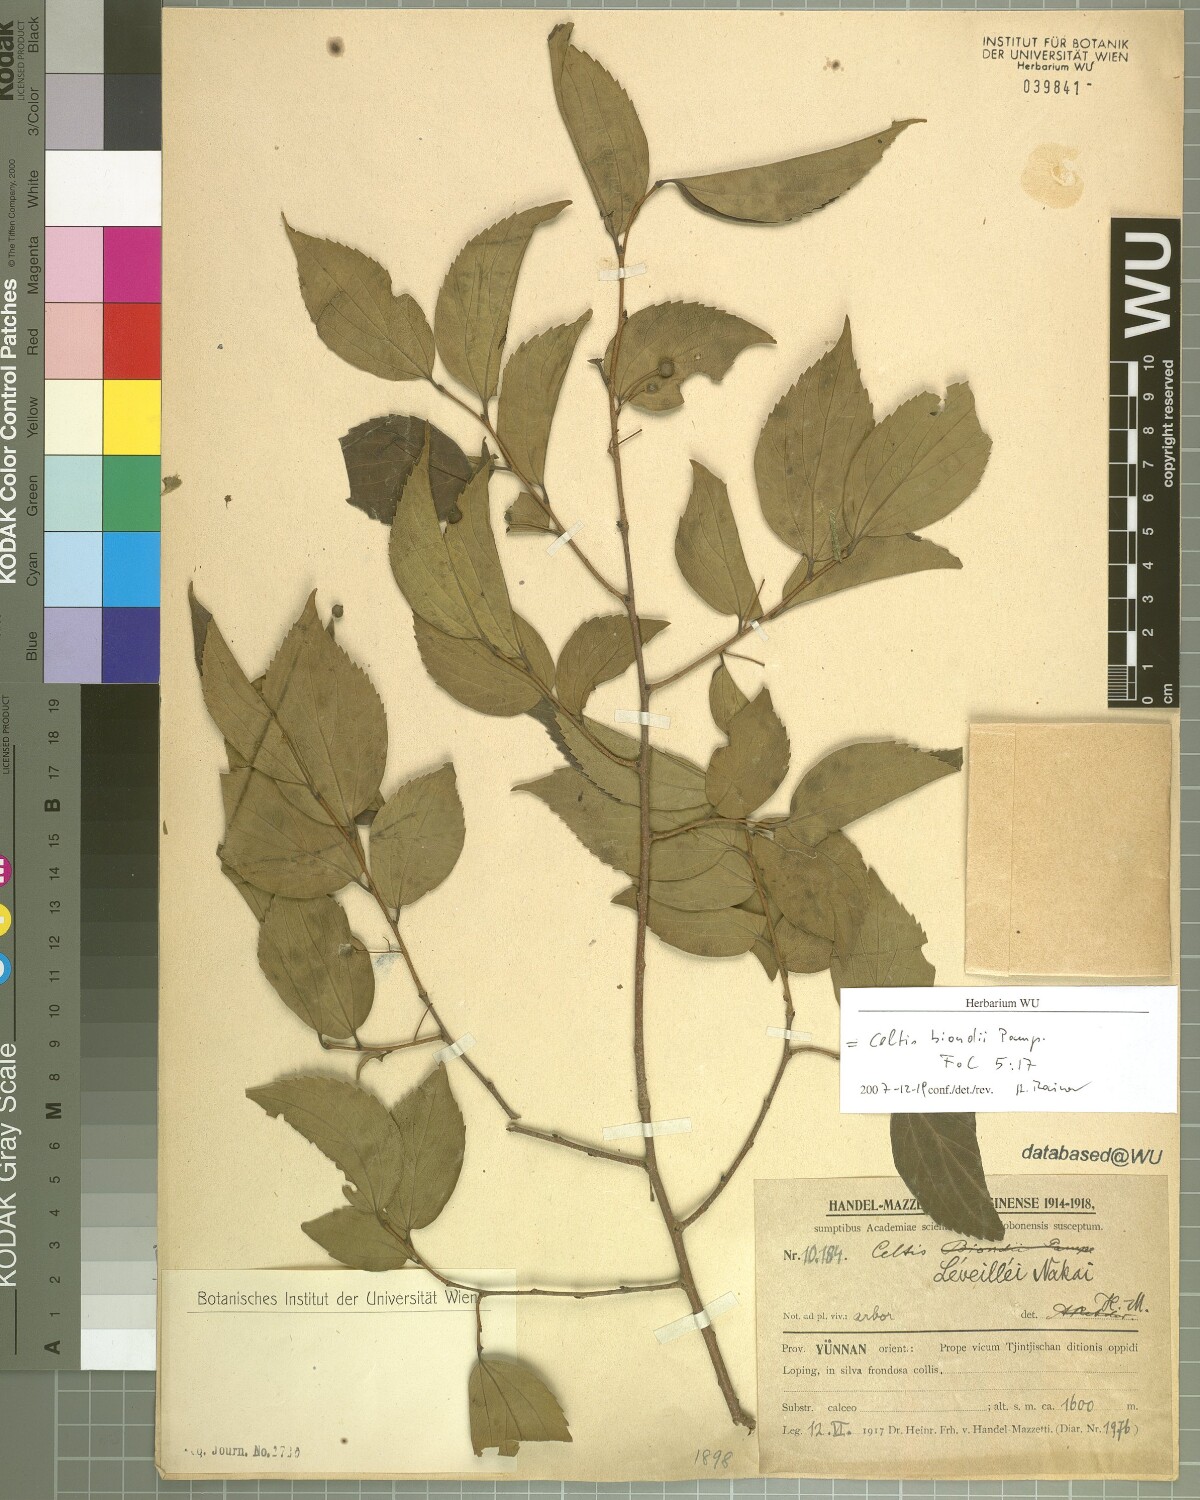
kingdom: Plantae
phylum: Tracheophyta
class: Magnoliopsida
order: Rosales
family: Cannabaceae
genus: Celtis
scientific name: Celtis biondii
